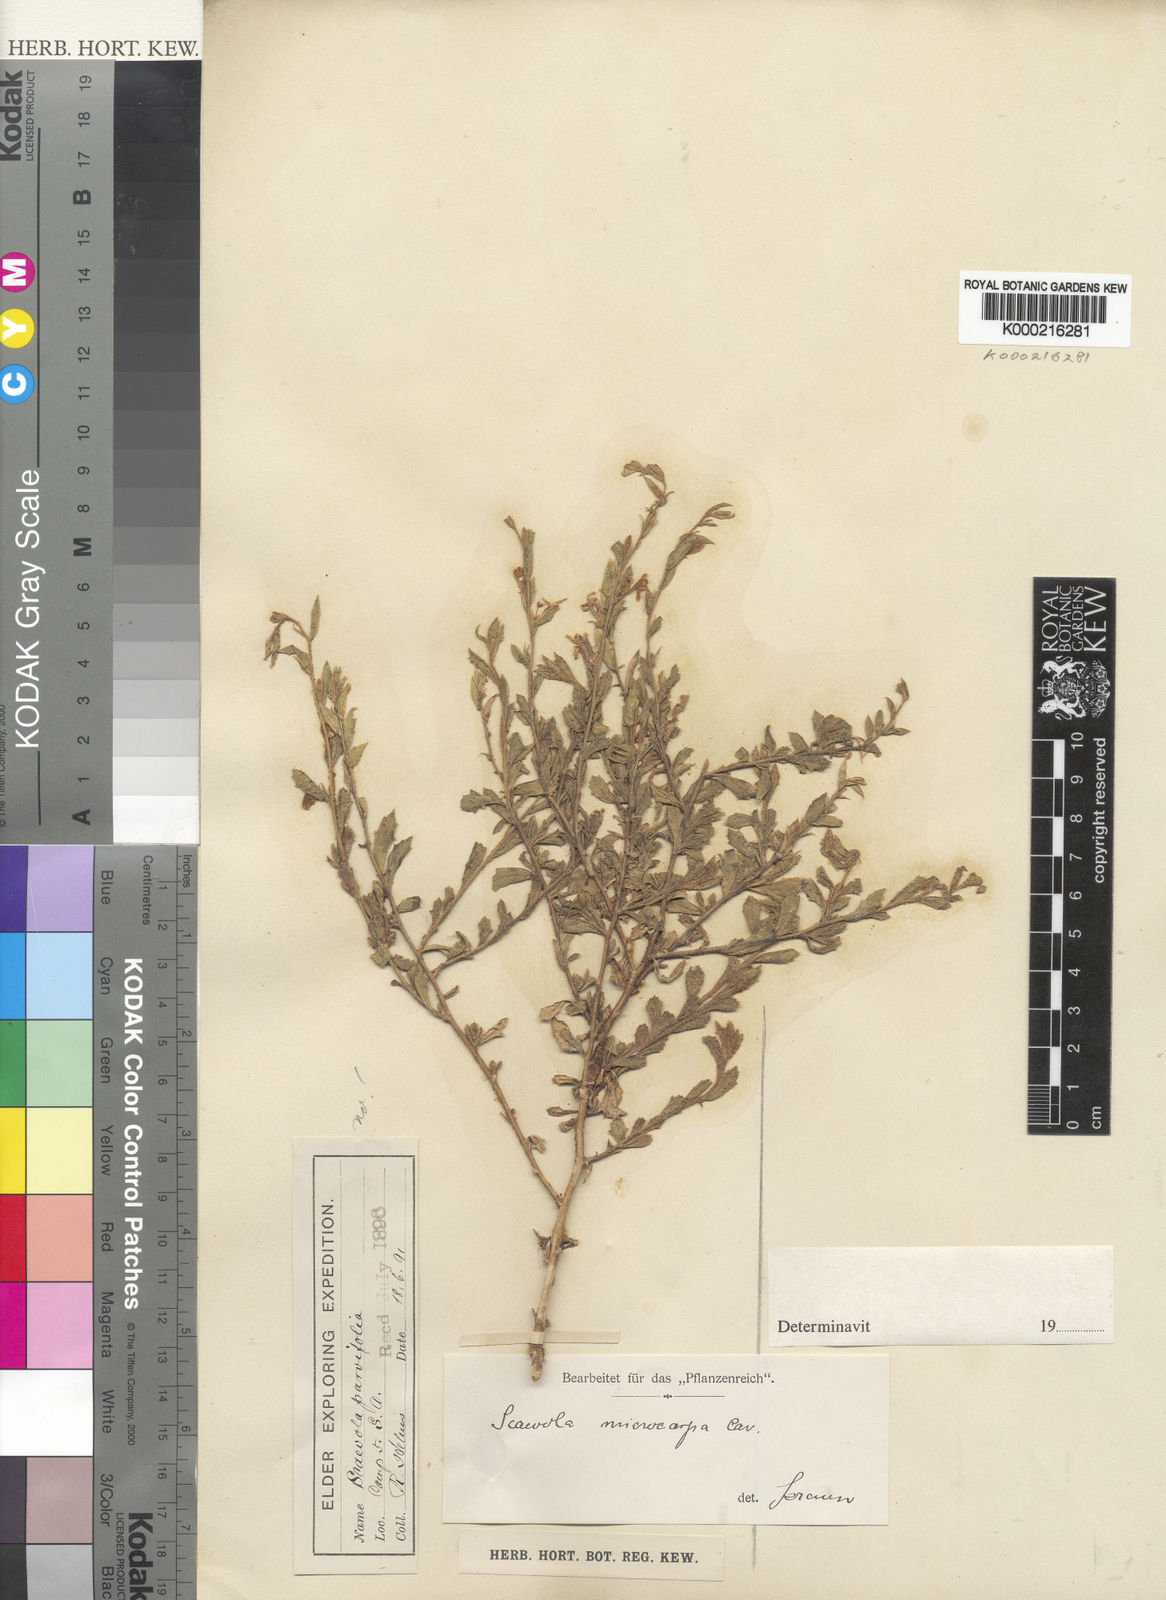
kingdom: Plantae
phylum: Tracheophyta
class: Magnoliopsida
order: Asterales
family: Goodeniaceae
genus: Scaevola
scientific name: Scaevola albida
